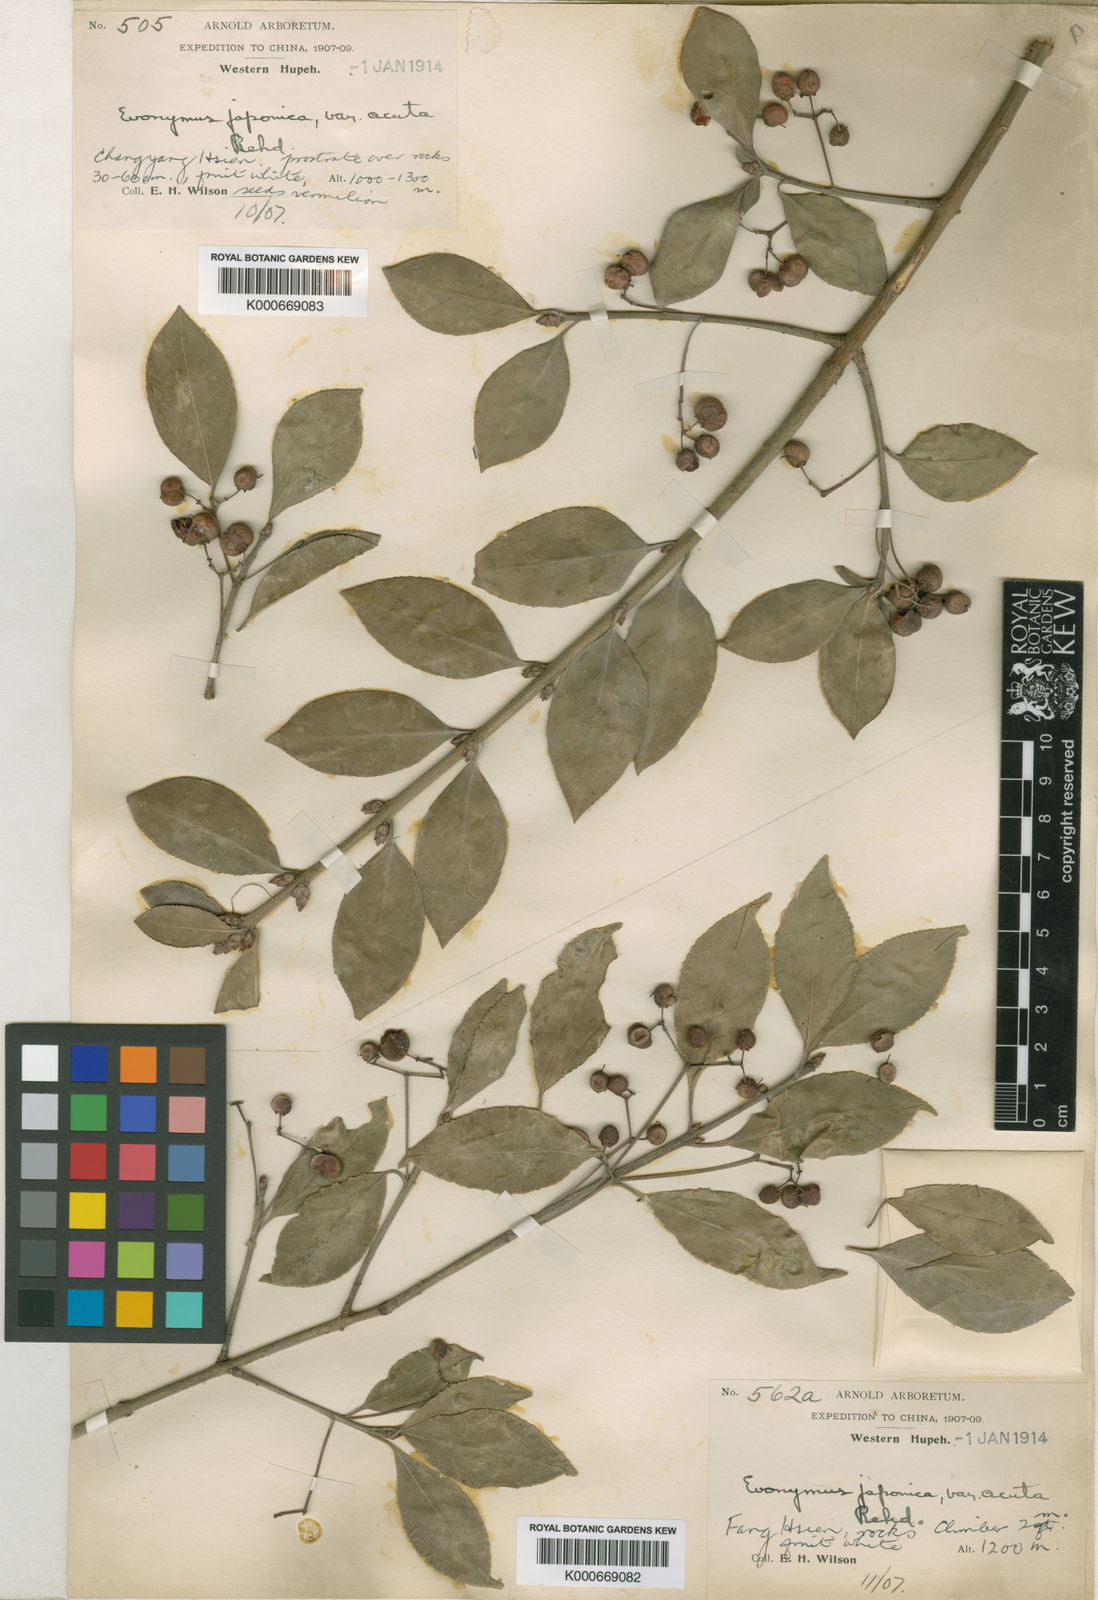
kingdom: Plantae
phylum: Tracheophyta
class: Magnoliopsida
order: Celastrales
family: Celastraceae
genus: Euonymus
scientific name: Euonymus fortunei
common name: Climbing euonymus
